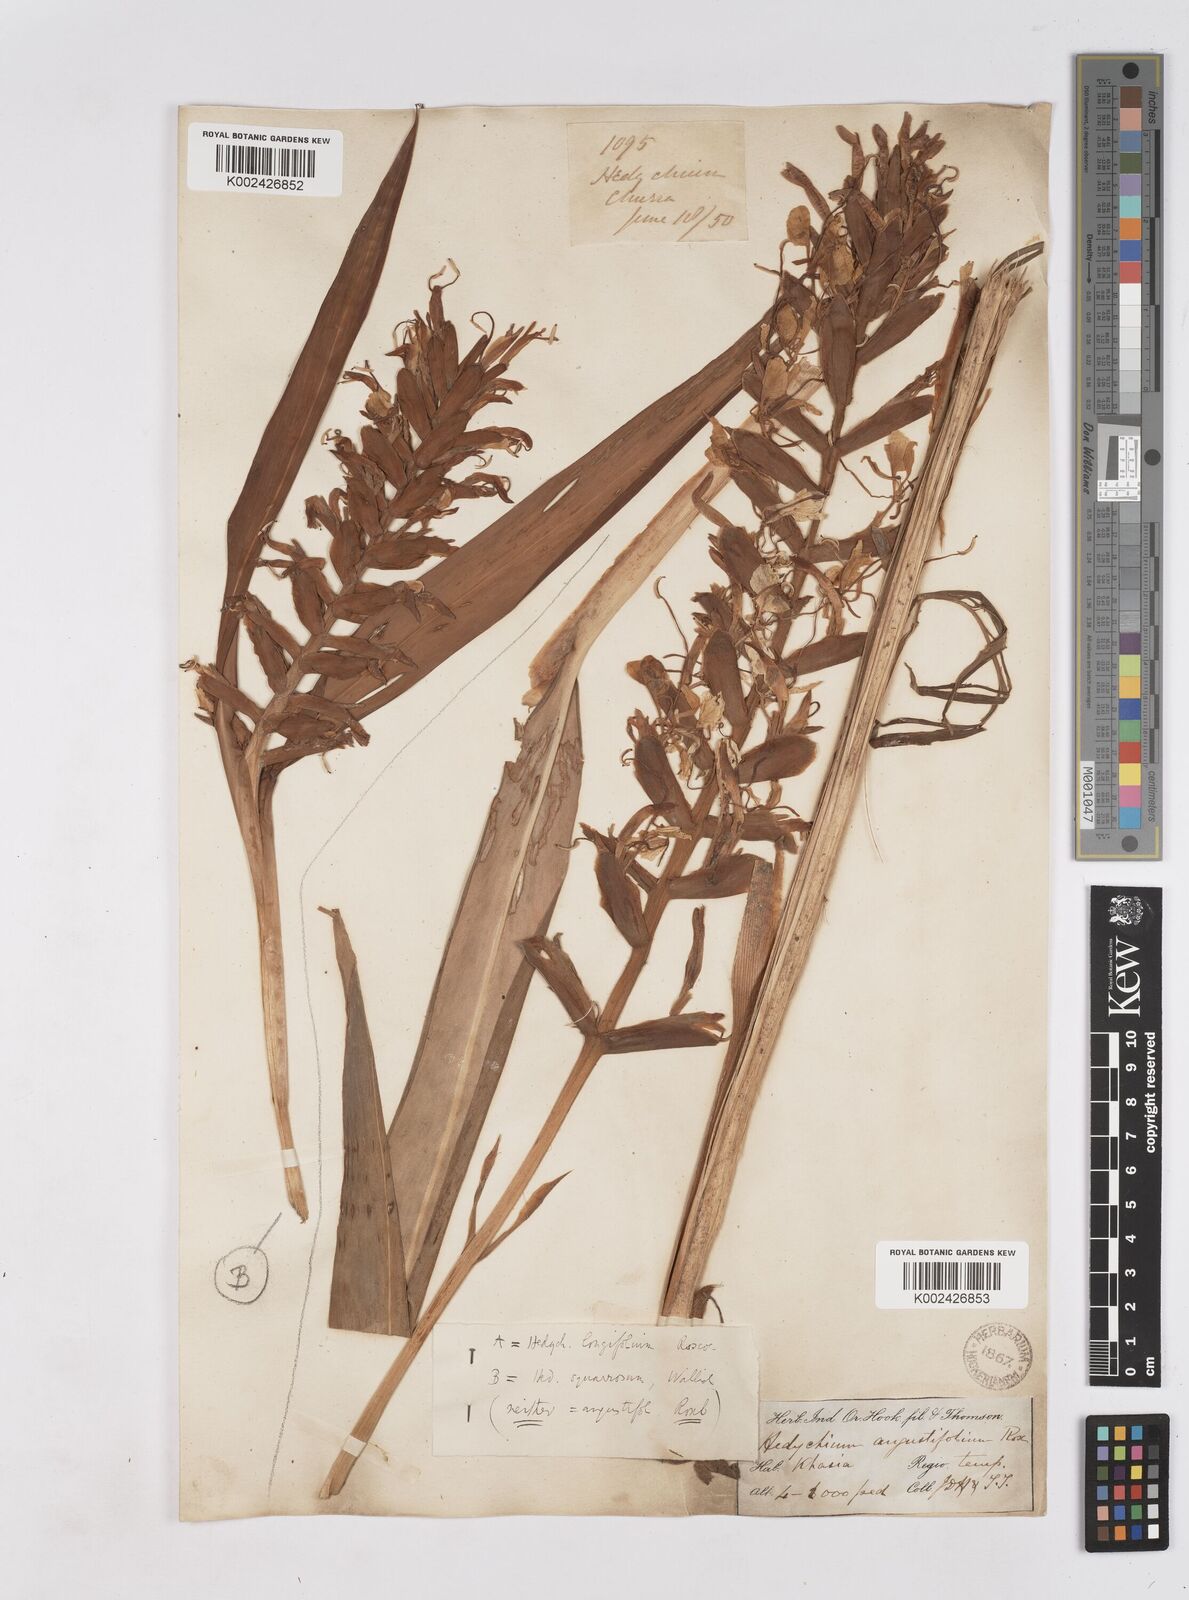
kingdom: Plantae
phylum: Tracheophyta
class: Liliopsida
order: Zingiberales
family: Zingiberaceae
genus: Hedychium
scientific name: Hedychium coccineum
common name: Red ginger-lily
